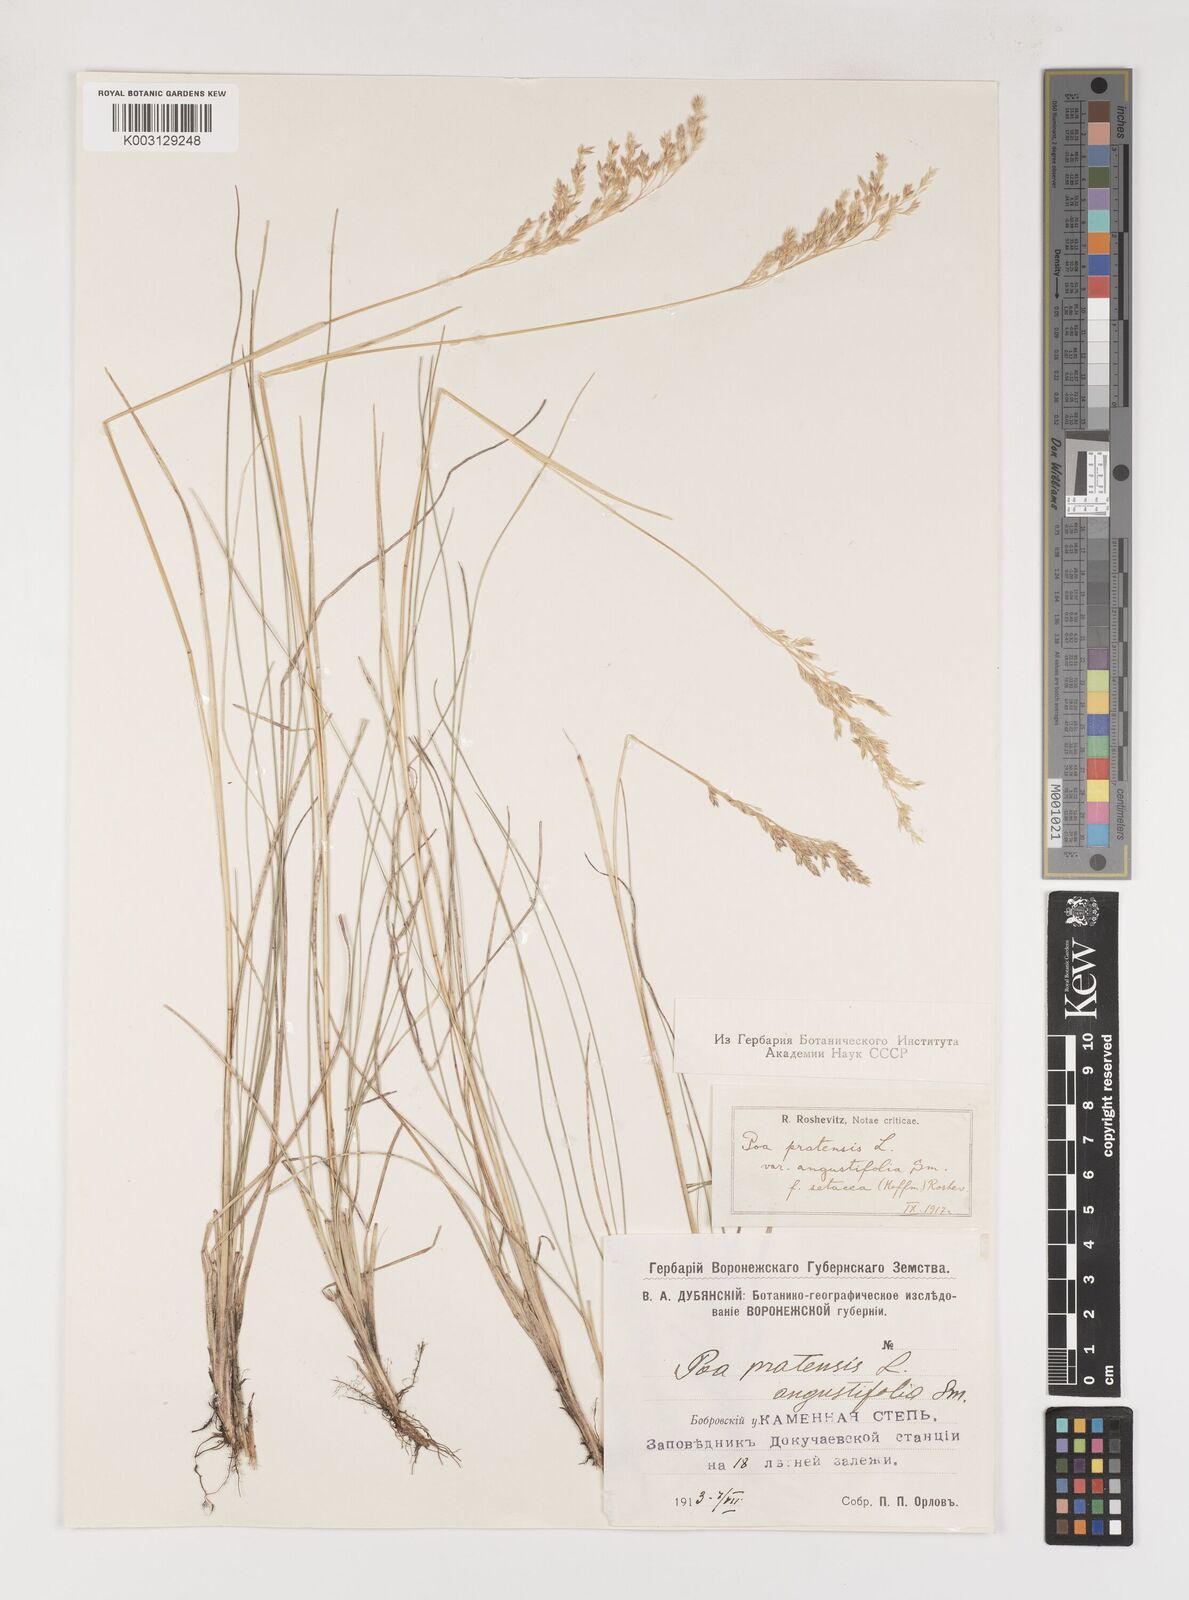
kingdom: Plantae
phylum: Tracheophyta
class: Liliopsida
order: Poales
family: Poaceae
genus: Poa
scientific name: Poa angustifolia
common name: Narrow-leaved meadow-grass
